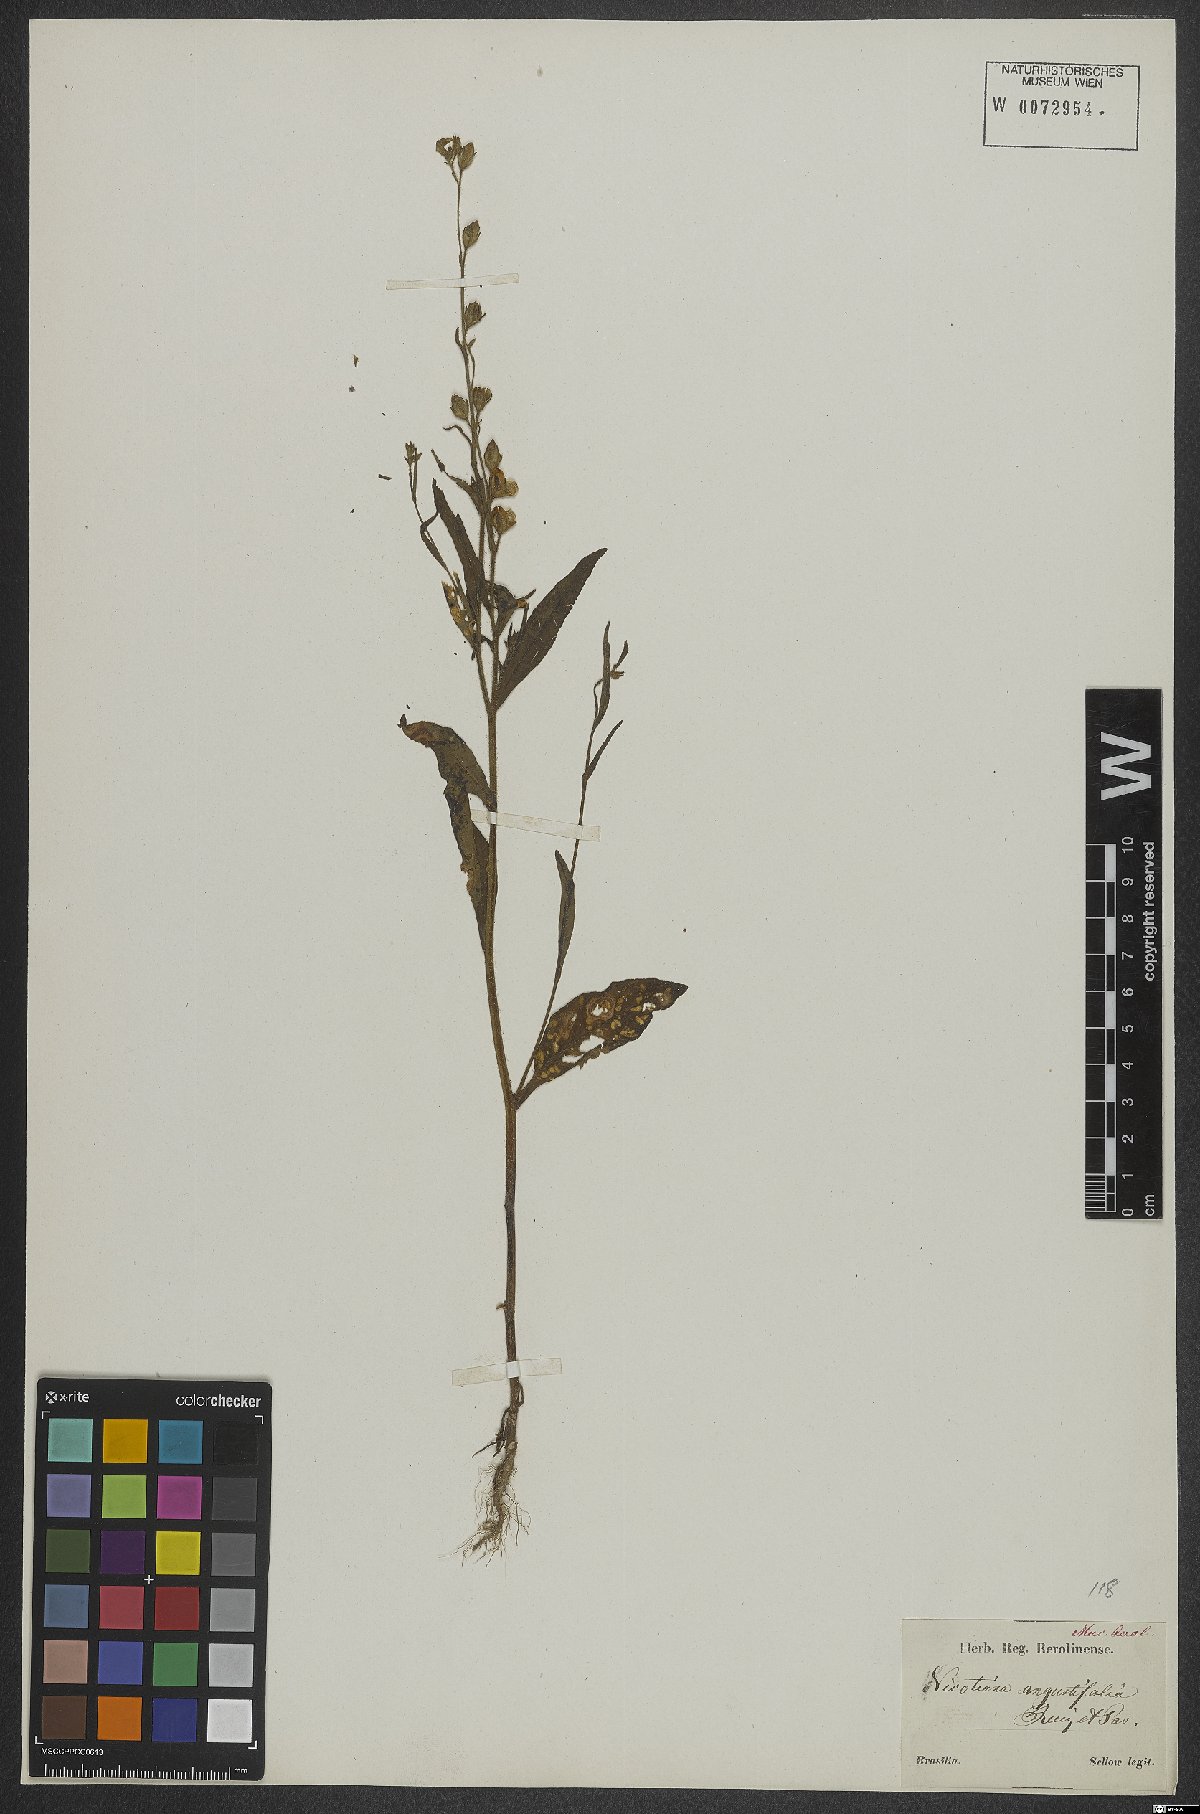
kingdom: Plantae
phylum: Tracheophyta
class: Magnoliopsida
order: Solanales
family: Solanaceae
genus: Nicotiana
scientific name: Nicotiana
